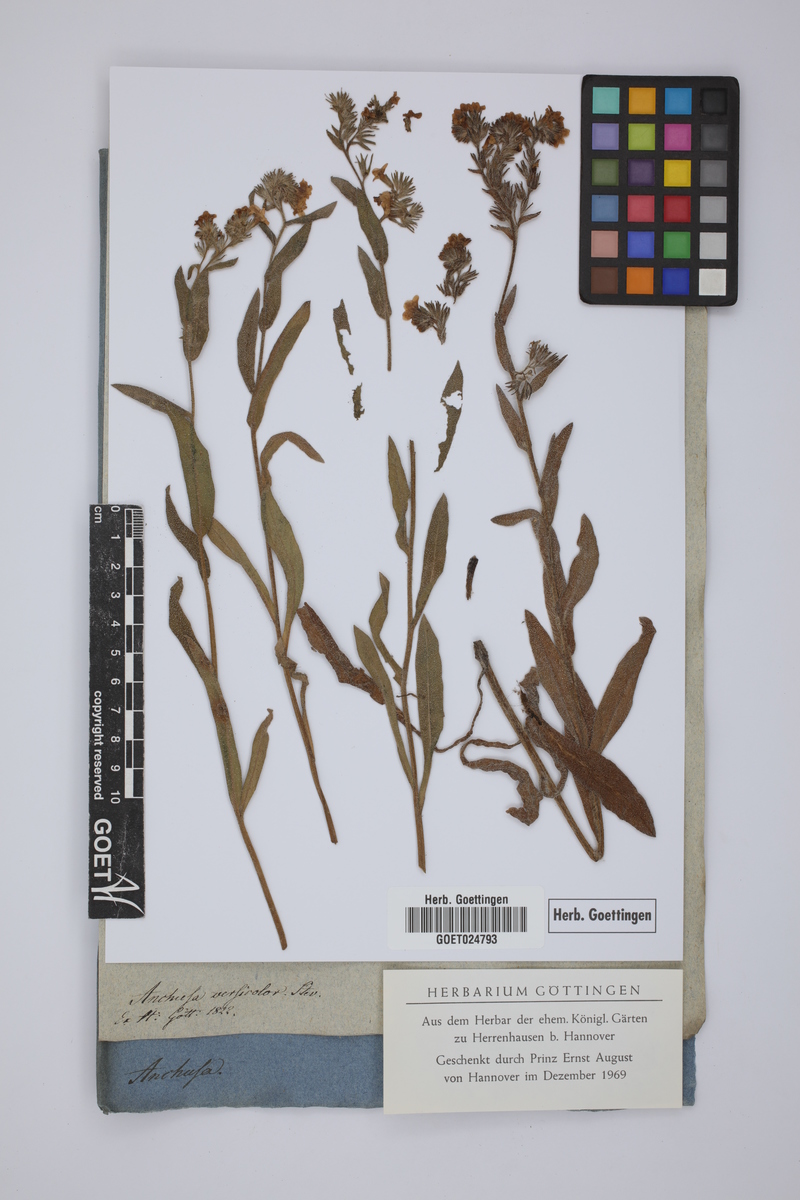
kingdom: Plantae
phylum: Tracheophyta
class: Magnoliopsida
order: Boraginales
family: Boraginaceae
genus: Nonea
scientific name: Nonea versicolor
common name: Varied monkswort
